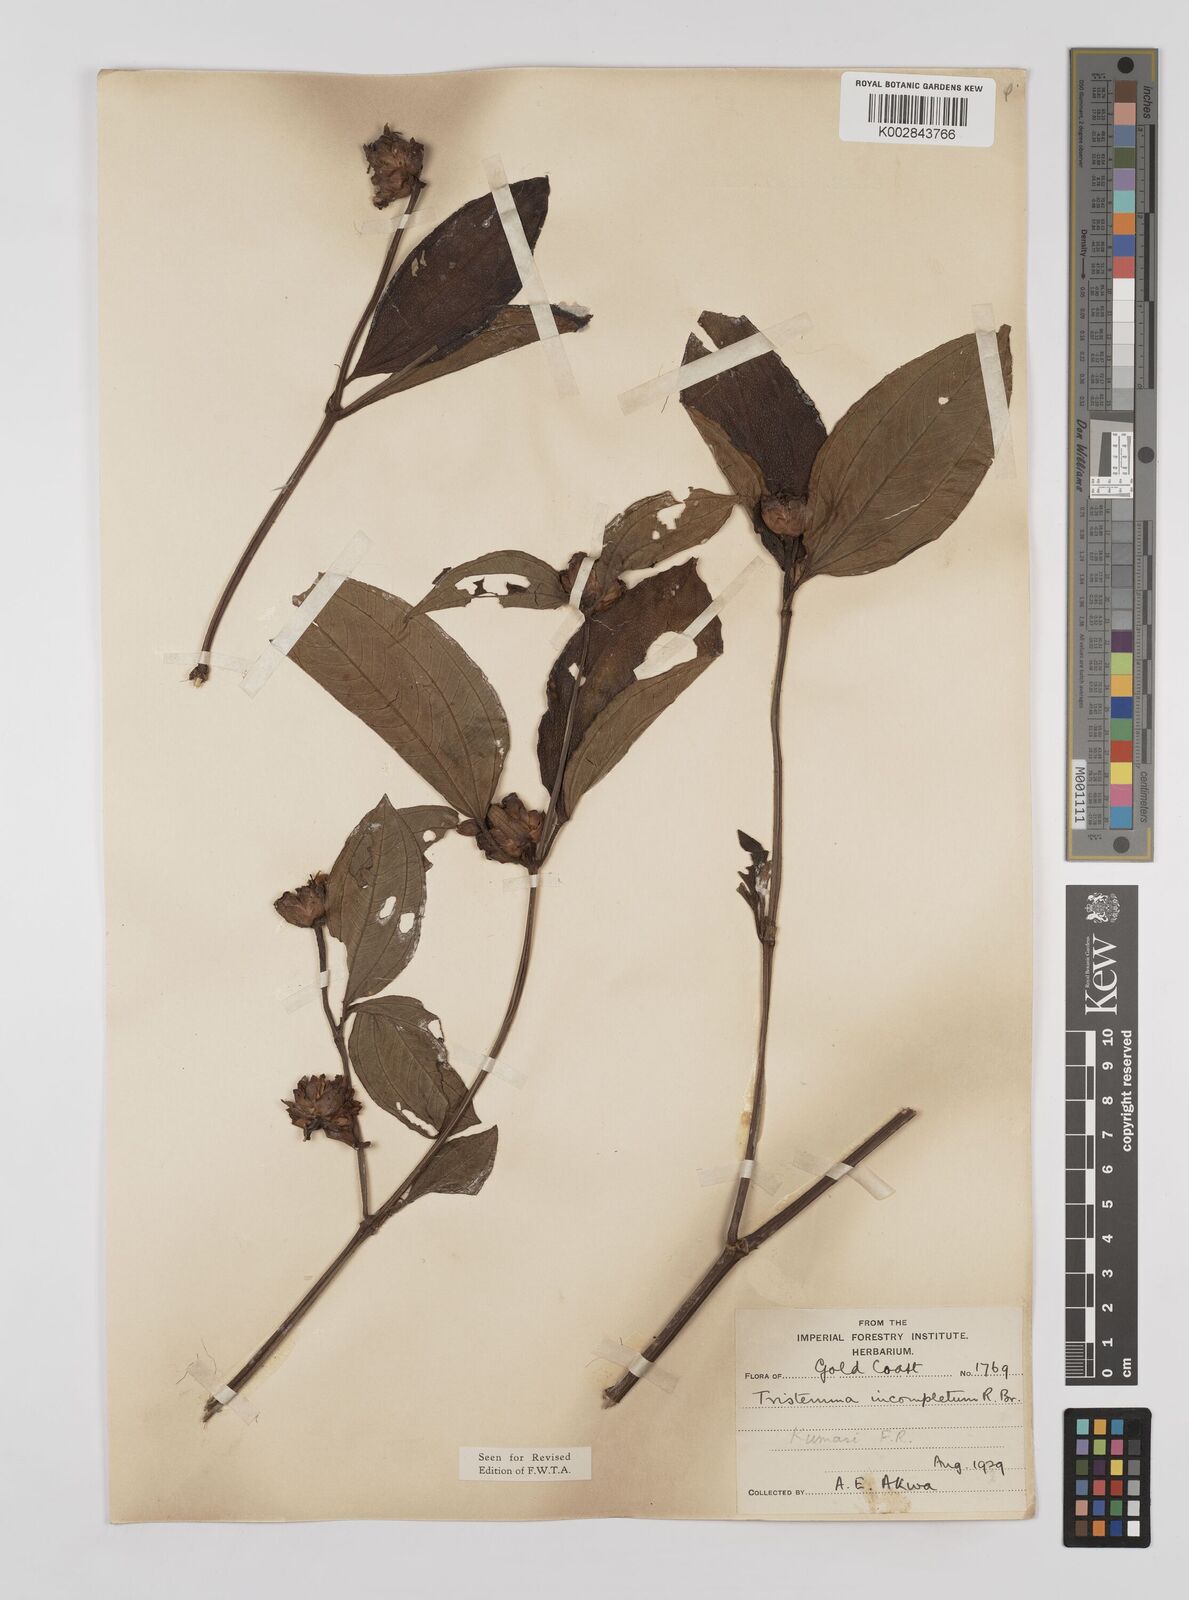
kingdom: Plantae
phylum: Tracheophyta
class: Magnoliopsida
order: Myrtales
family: Melastomataceae
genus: Tristemma
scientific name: Tristemma mauritianum
